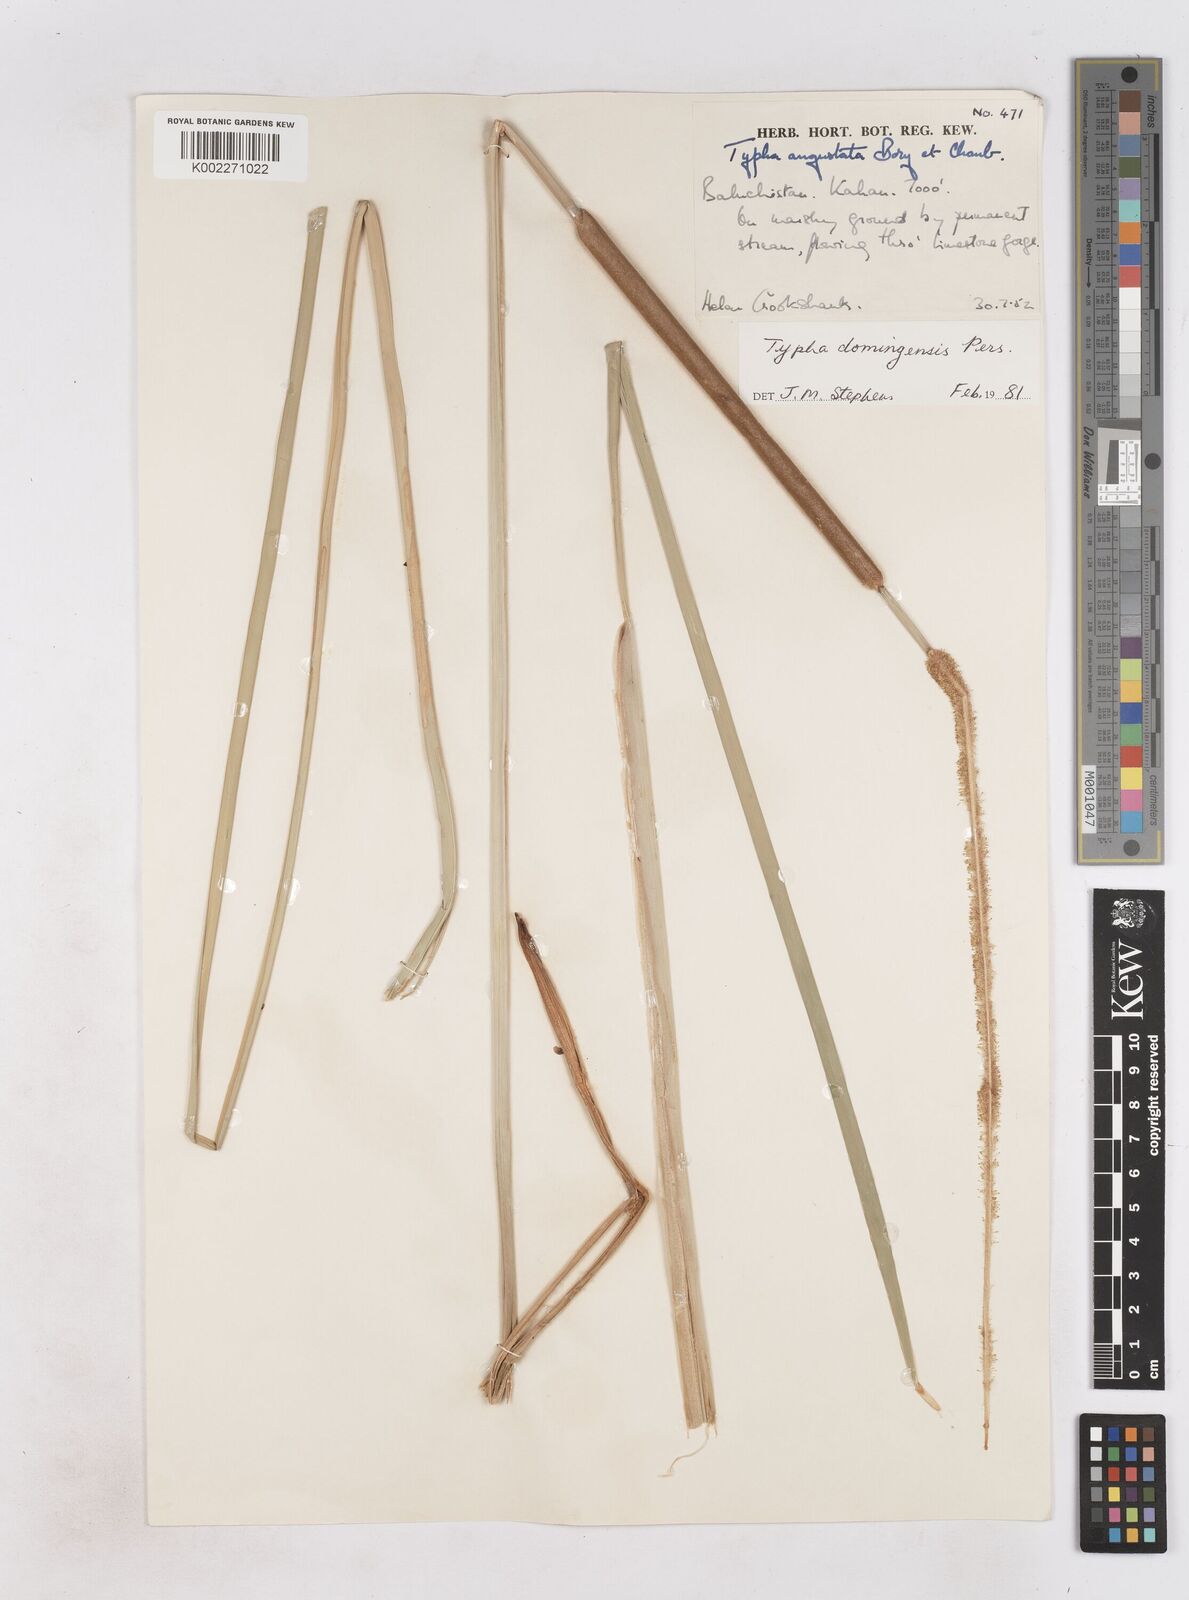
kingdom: Plantae
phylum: Tracheophyta
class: Liliopsida
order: Poales
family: Typhaceae
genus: Typha
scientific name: Typha domingensis
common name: Southern cattail
